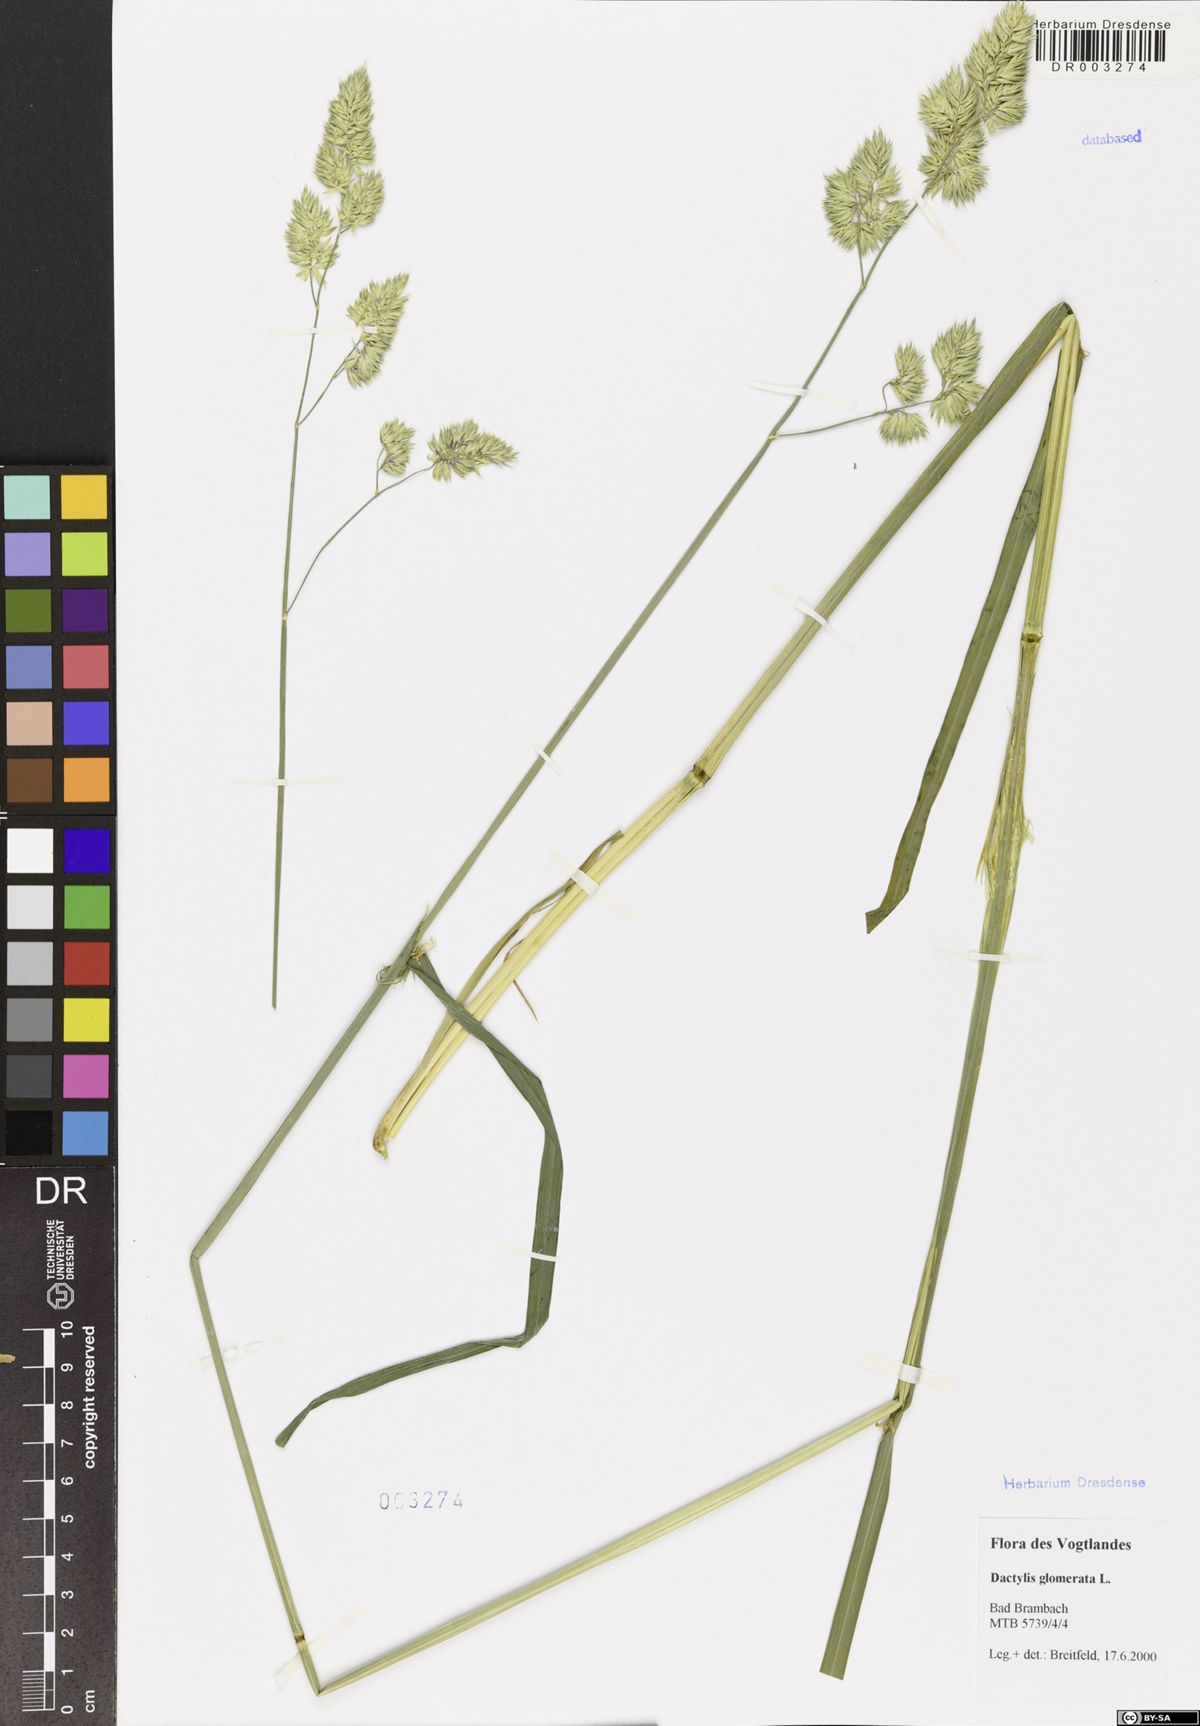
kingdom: Plantae
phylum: Tracheophyta
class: Liliopsida
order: Poales
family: Poaceae
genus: Dactylis
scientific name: Dactylis glomerata
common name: Orchardgrass
